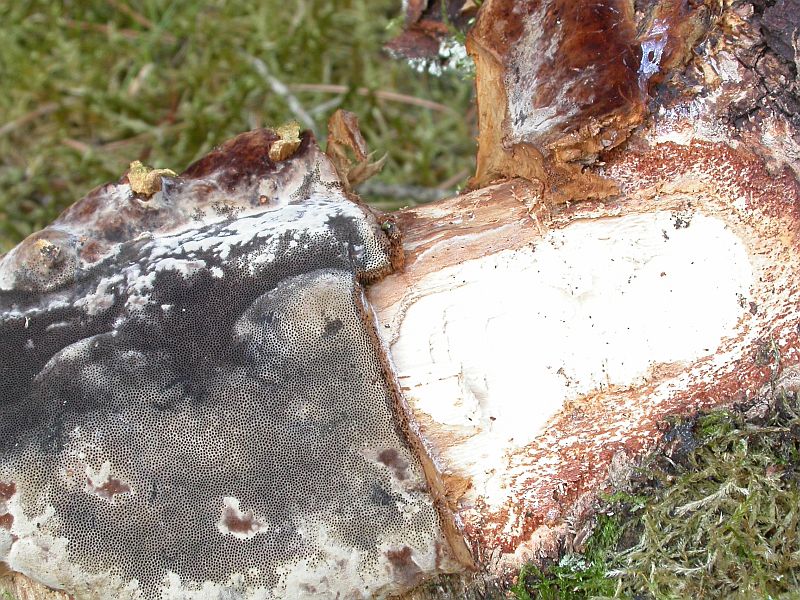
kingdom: Fungi
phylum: Basidiomycota
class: Agaricomycetes
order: Polyporales
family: Polyporaceae
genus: Fomes
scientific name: Fomes fomentarius
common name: tøndersvamp
